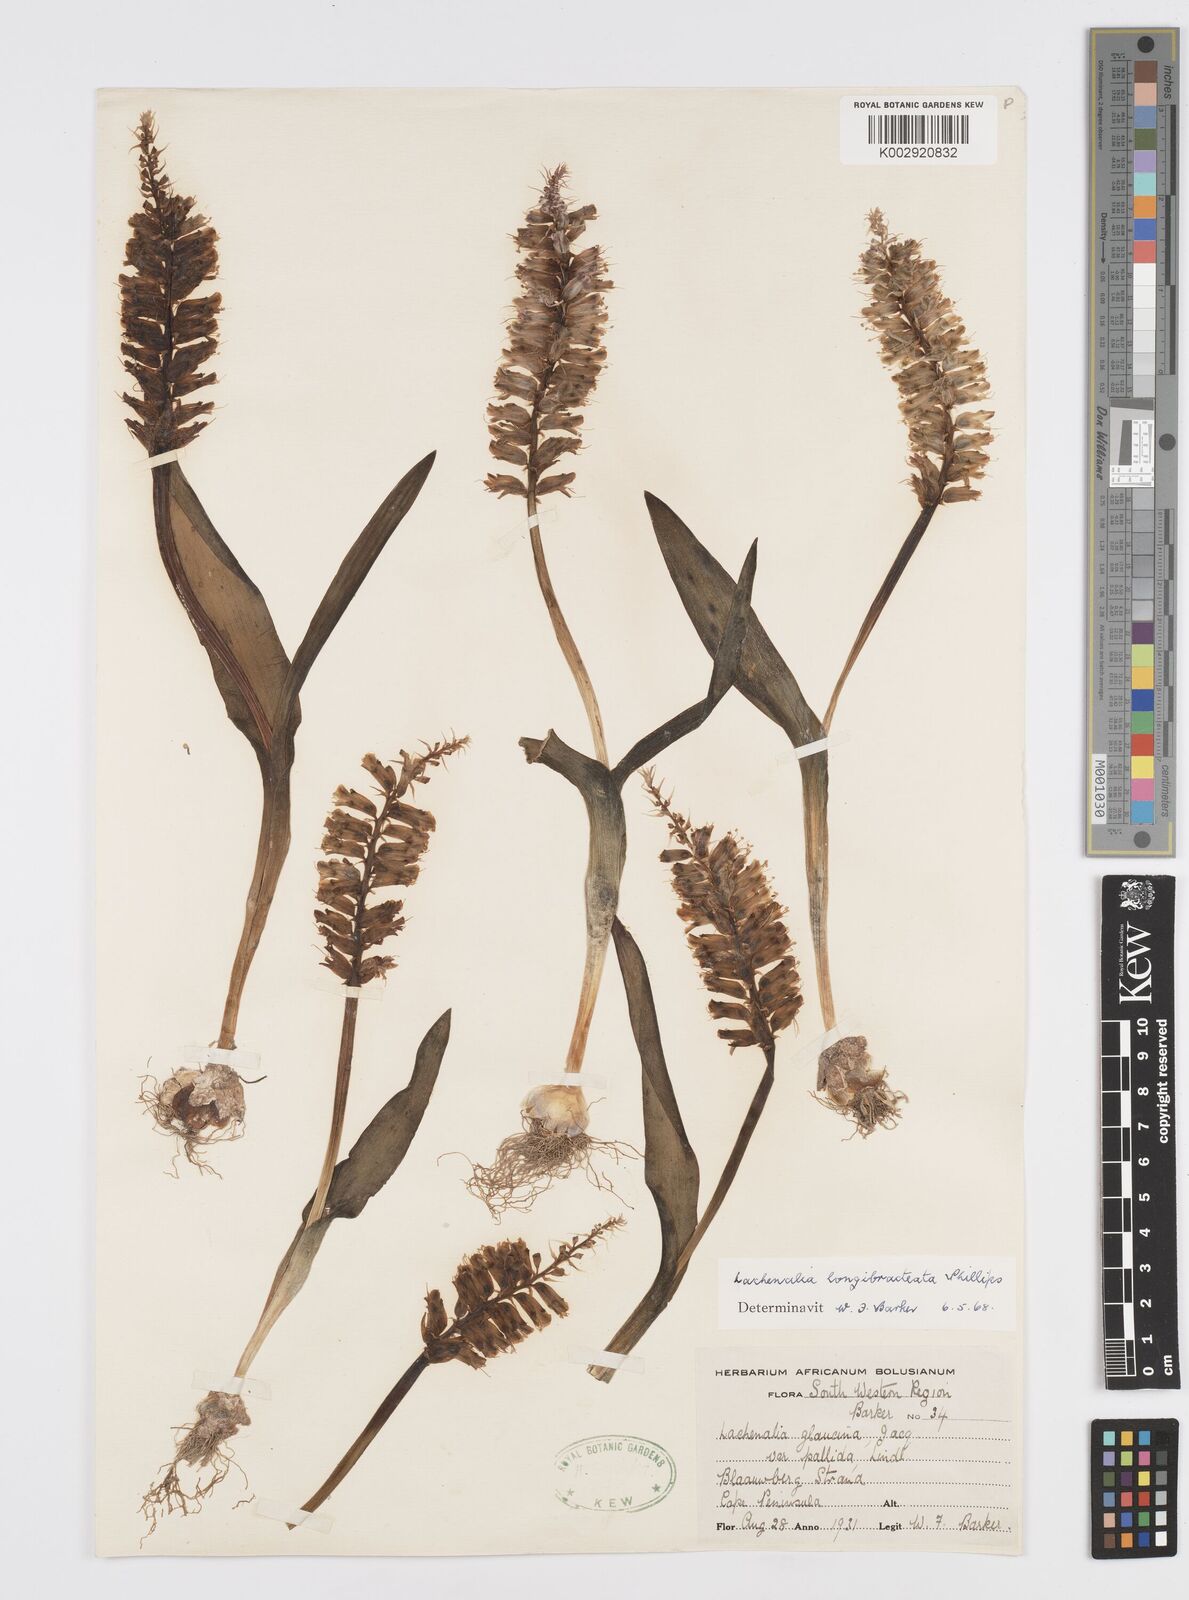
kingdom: Plantae
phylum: Tracheophyta
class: Liliopsida
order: Asparagales
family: Asparagaceae
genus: Lachenalia
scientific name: Lachenalia longibracteata
